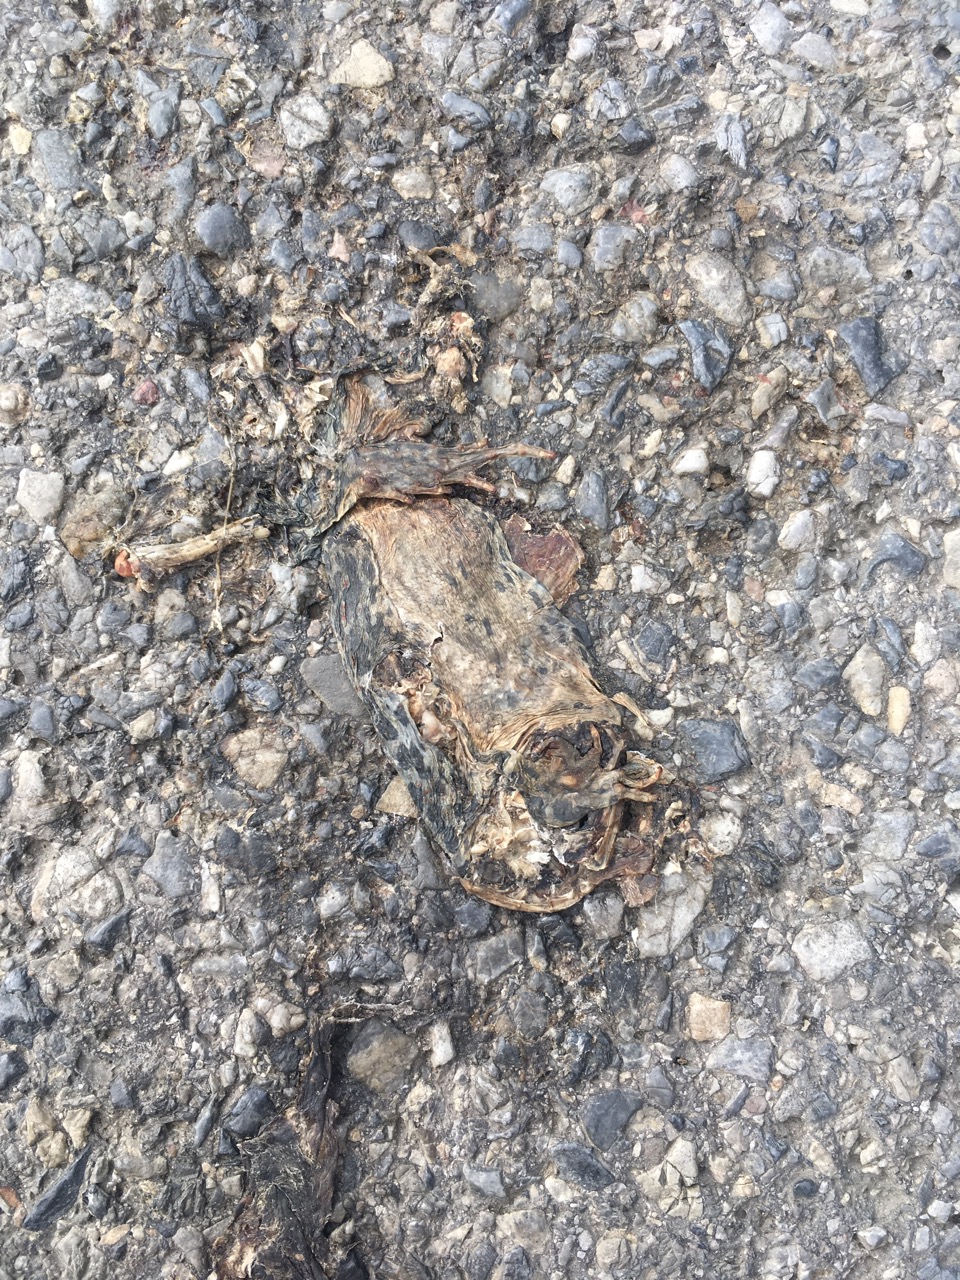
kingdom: Animalia
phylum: Chordata
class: Amphibia
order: Anura
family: Bufonidae
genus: Bufotes
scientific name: Bufotes viridis
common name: European green toad
